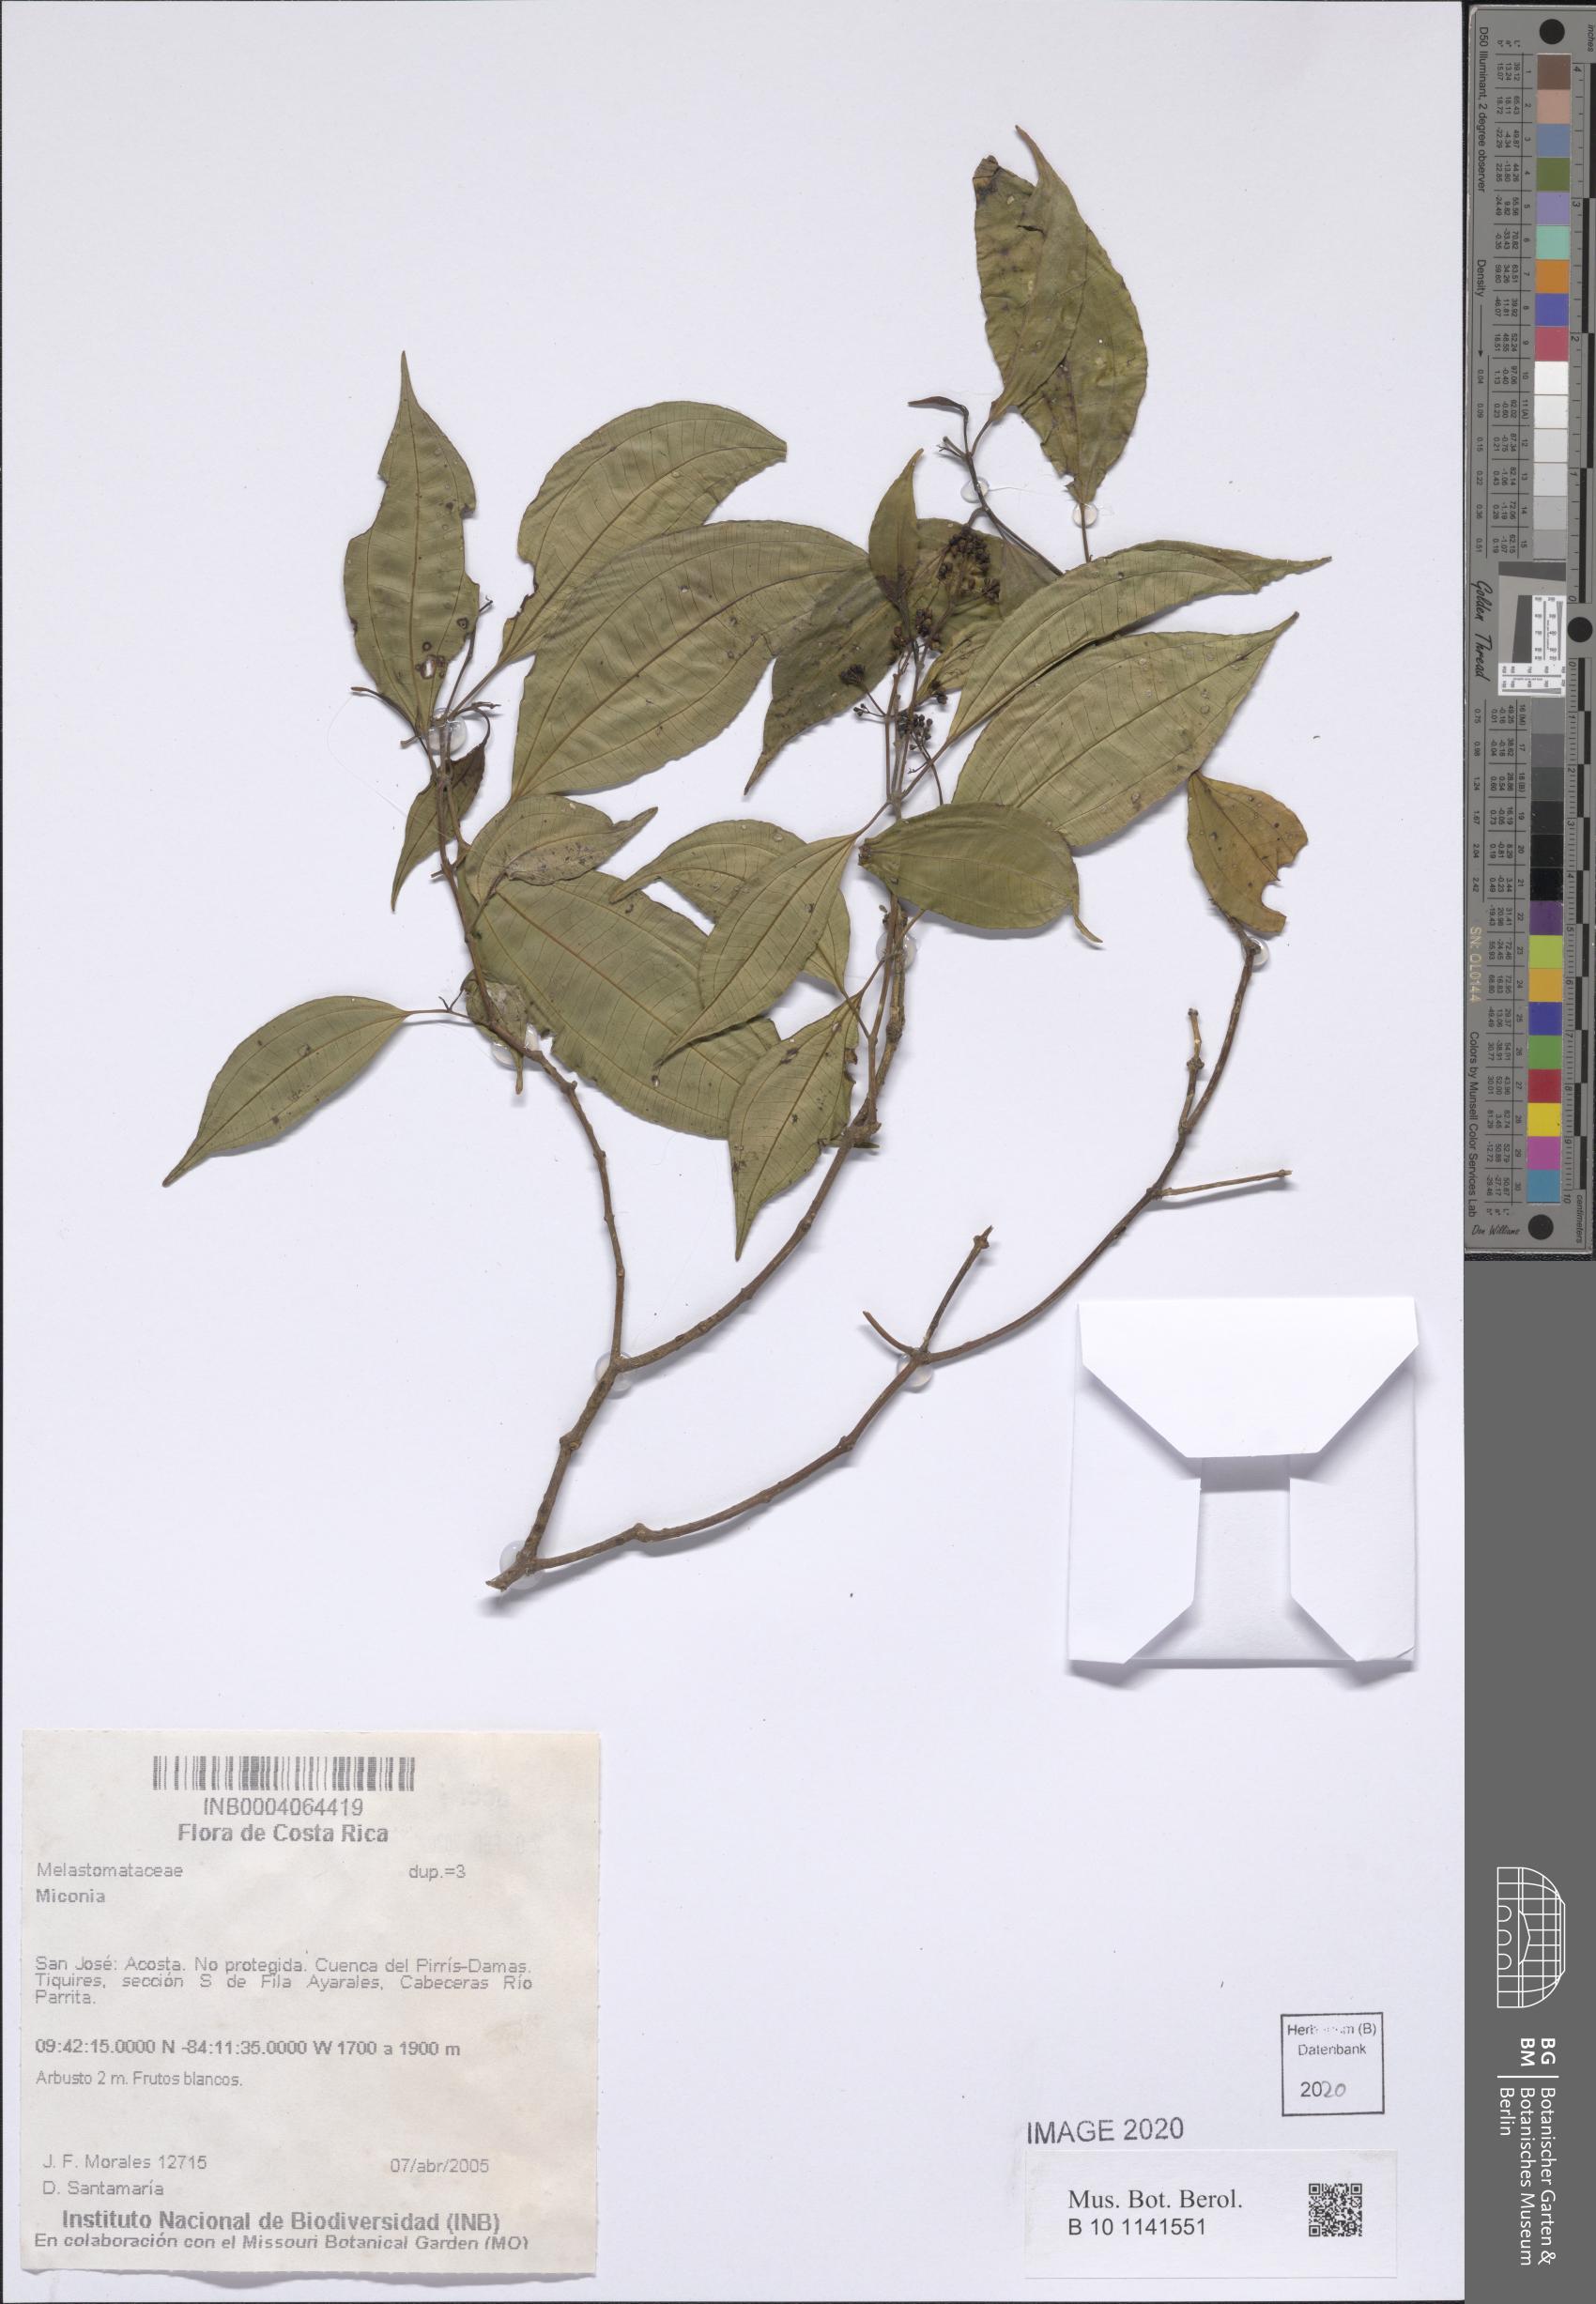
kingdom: Plantae
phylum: Tracheophyta
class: Magnoliopsida
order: Myrtales
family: Melastomataceae
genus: Miconia
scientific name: Miconia
